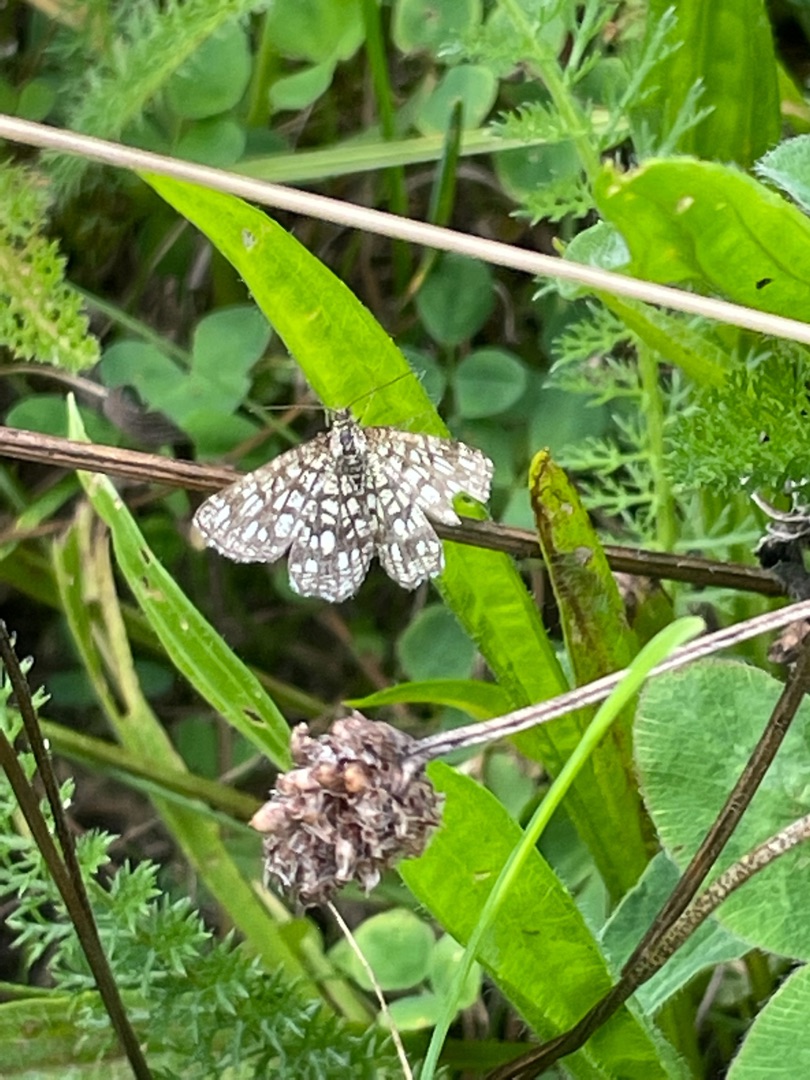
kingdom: Animalia
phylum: Arthropoda
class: Insecta
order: Lepidoptera
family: Geometridae
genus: Chiasmia
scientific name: Chiasmia clathrata
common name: Kløvermåler
